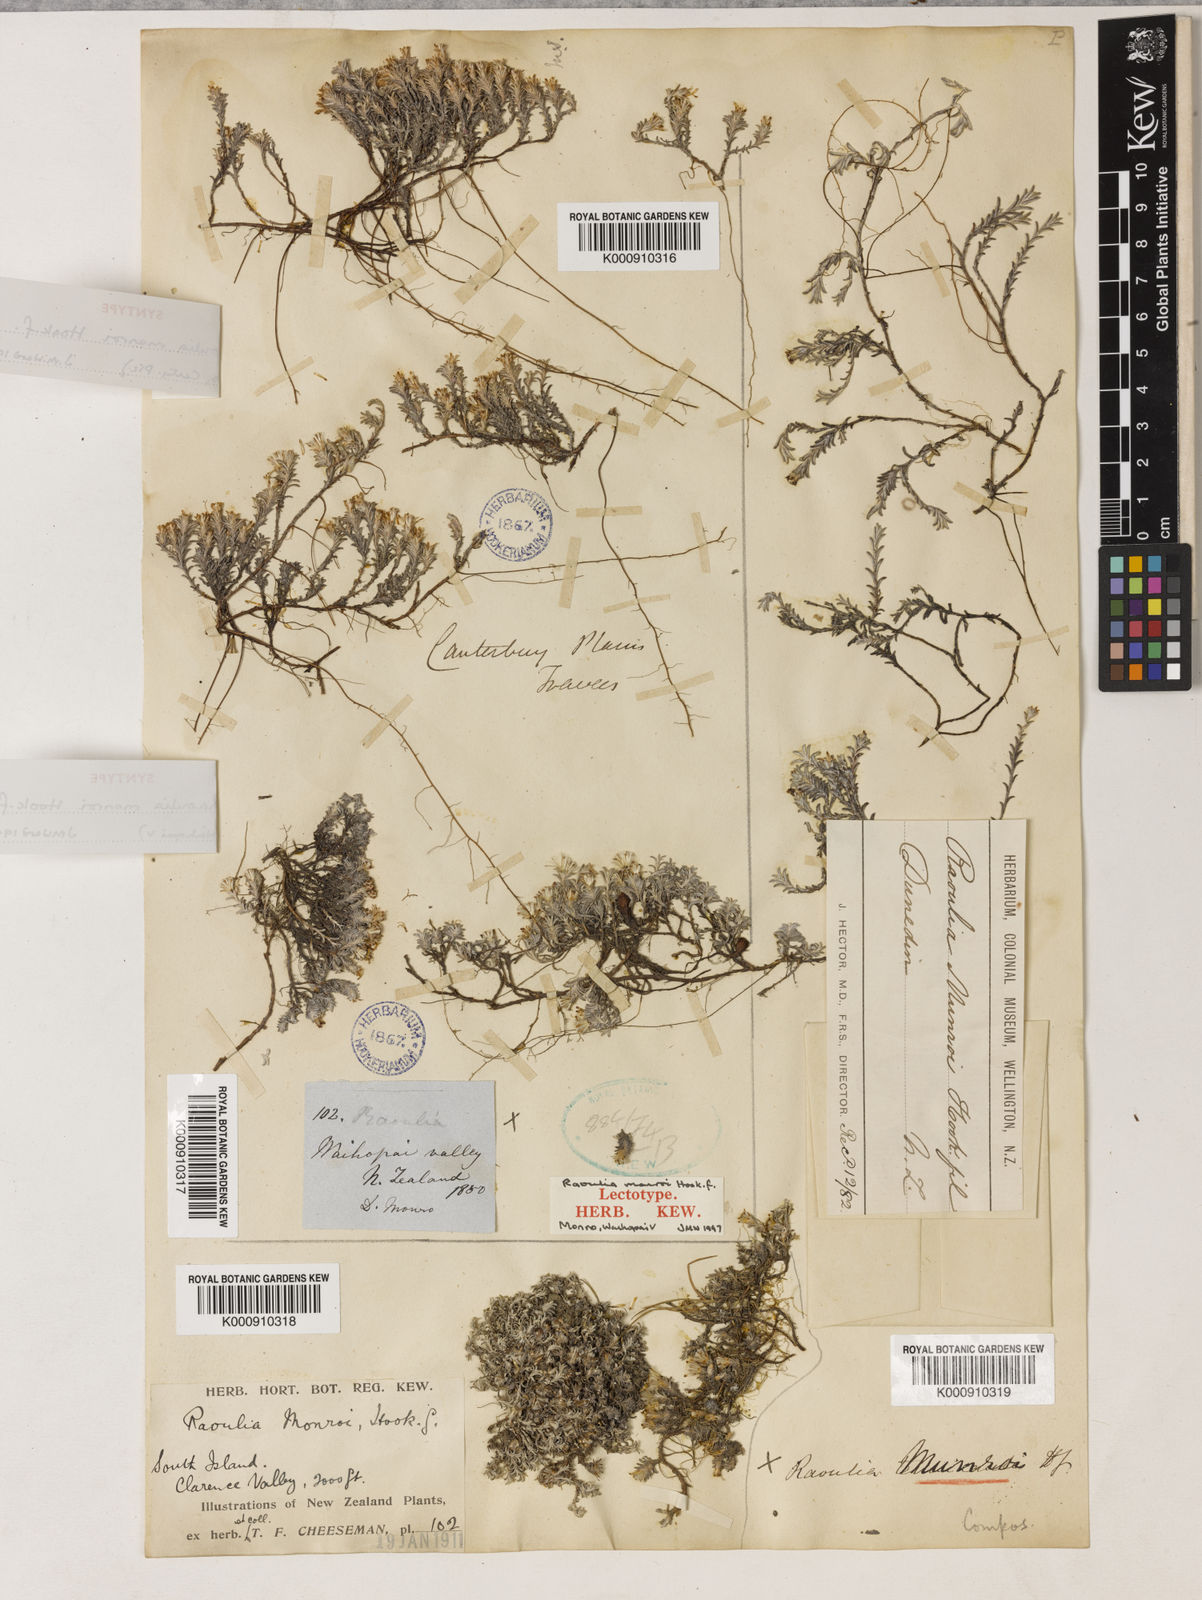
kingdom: Plantae
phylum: Tracheophyta
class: Magnoliopsida
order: Asterales
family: Asteraceae
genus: Raoulia
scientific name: Raoulia monroi
